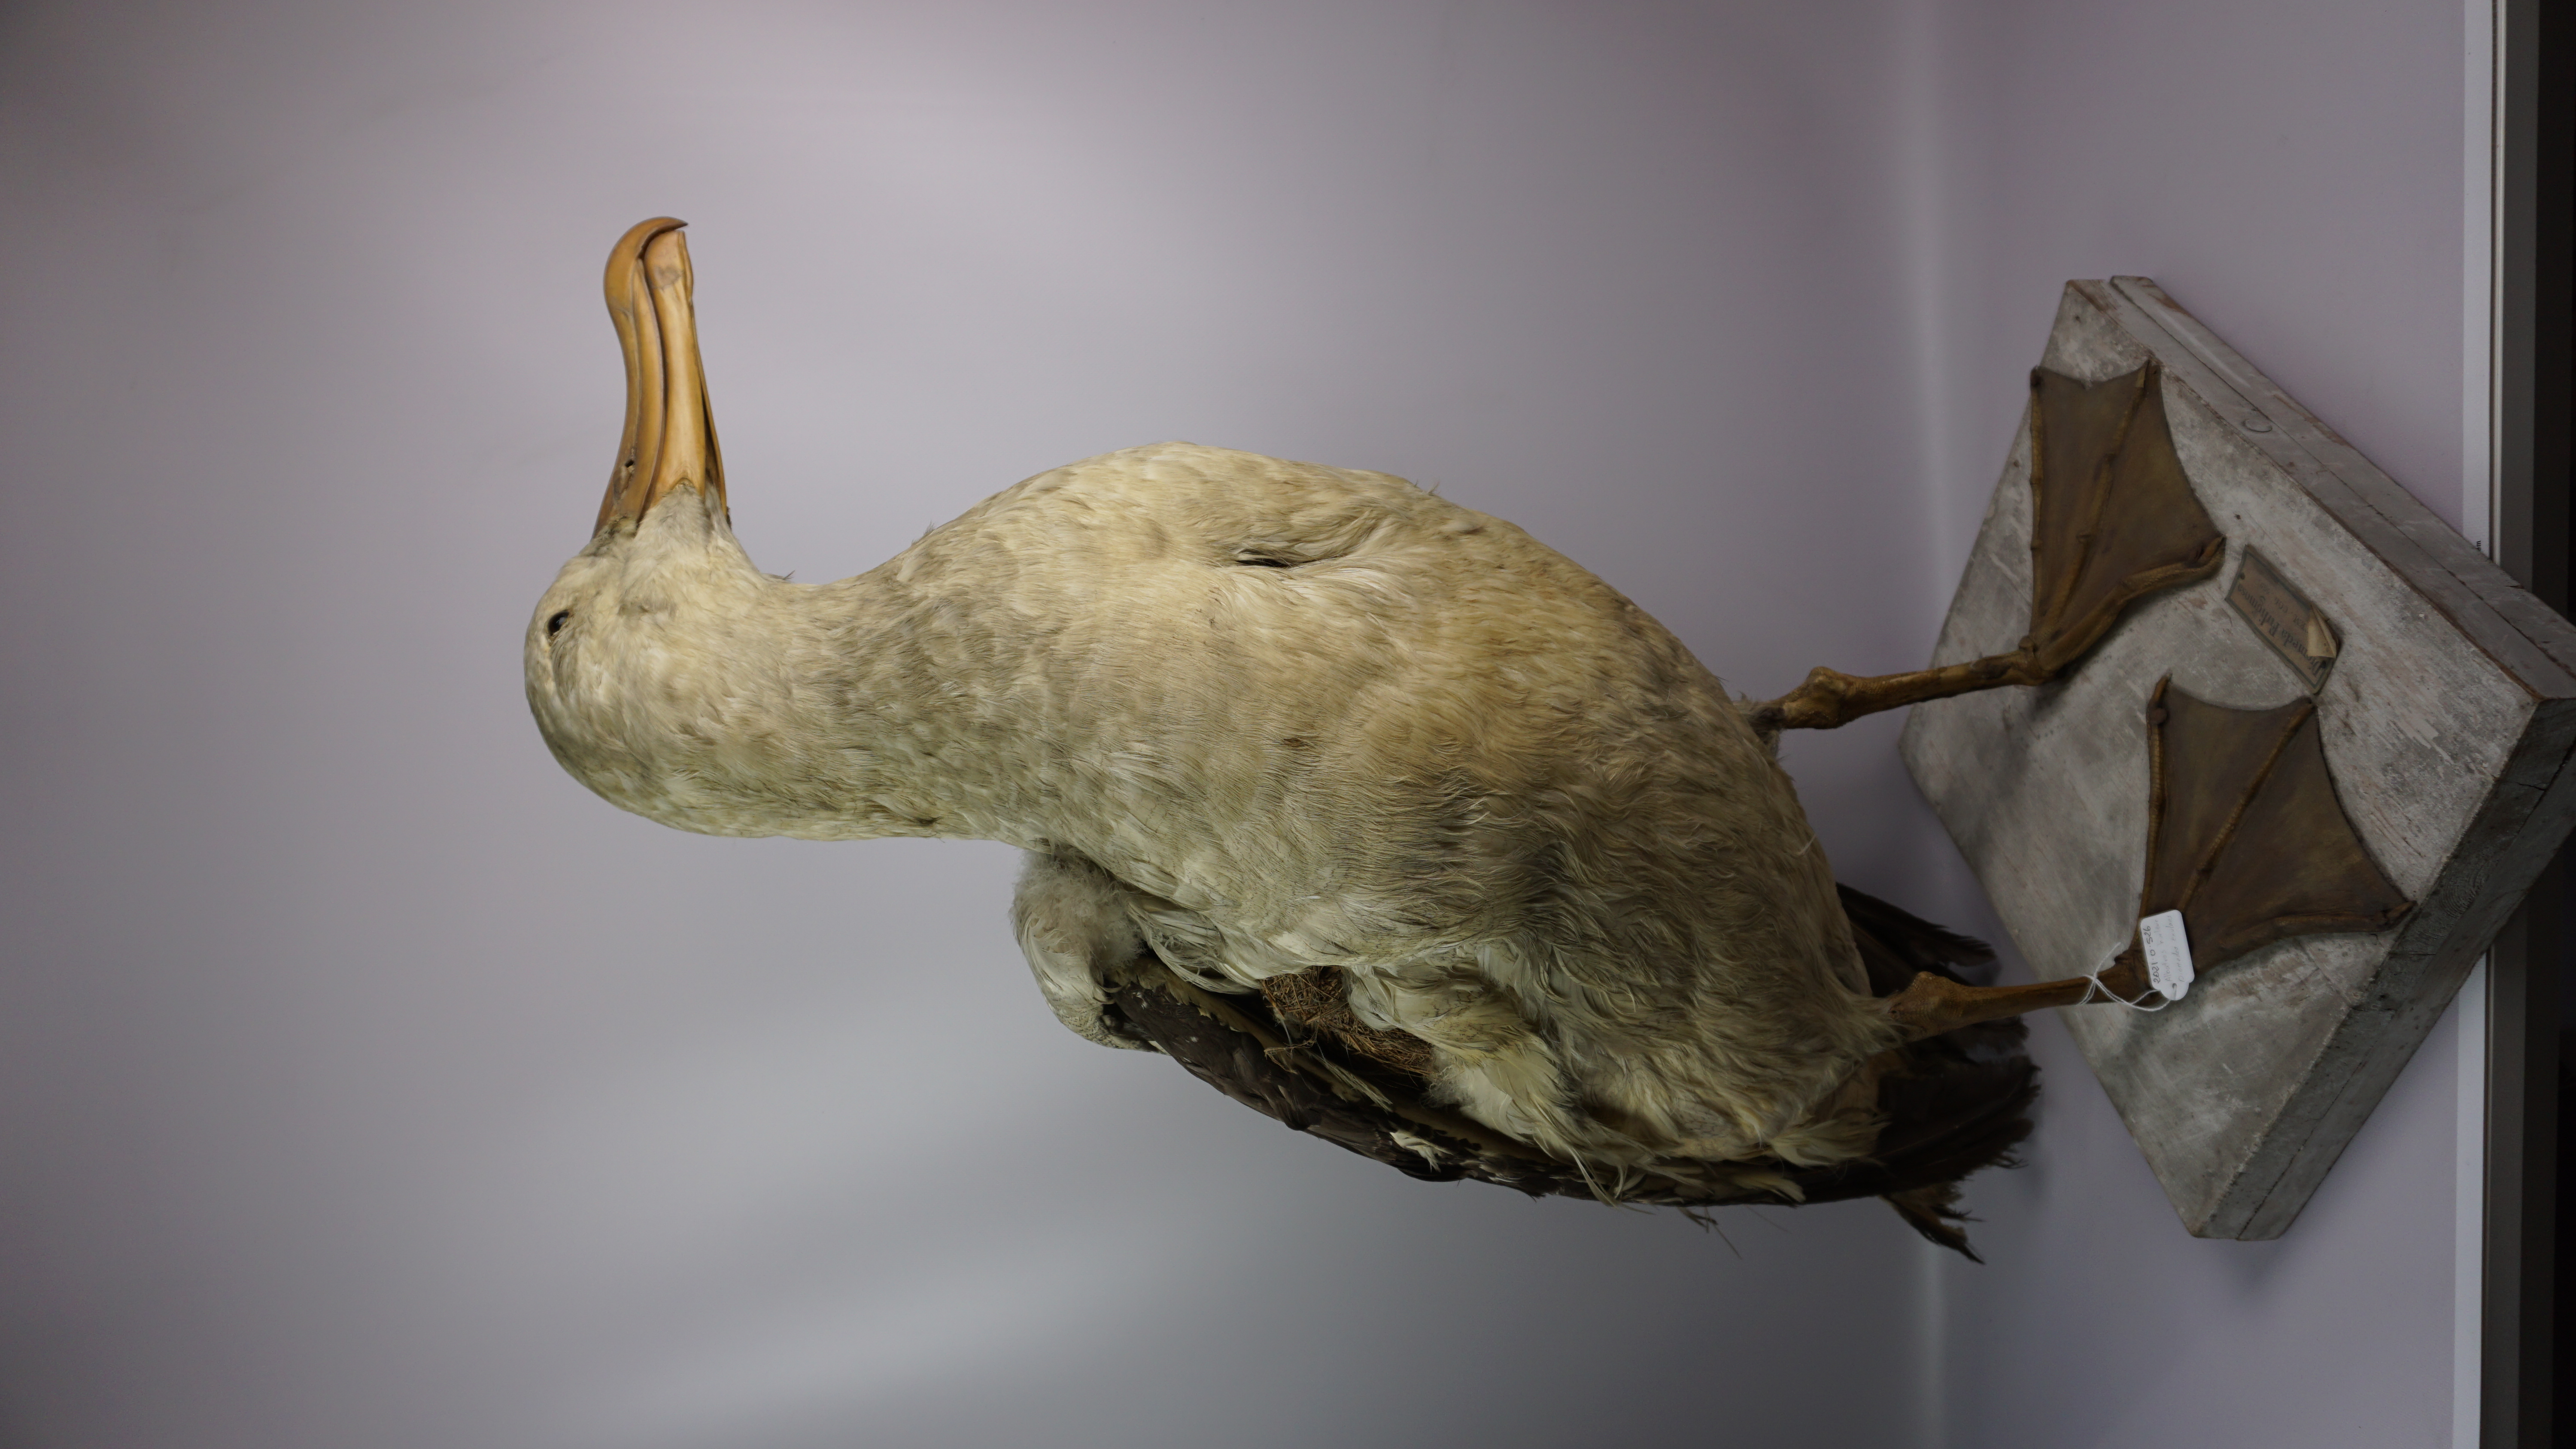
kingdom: Animalia
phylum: Chordata
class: Aves
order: Procellariiformes
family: Diomedeidae
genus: Diomedea
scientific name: Diomedea exulans
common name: Wandering albatross
